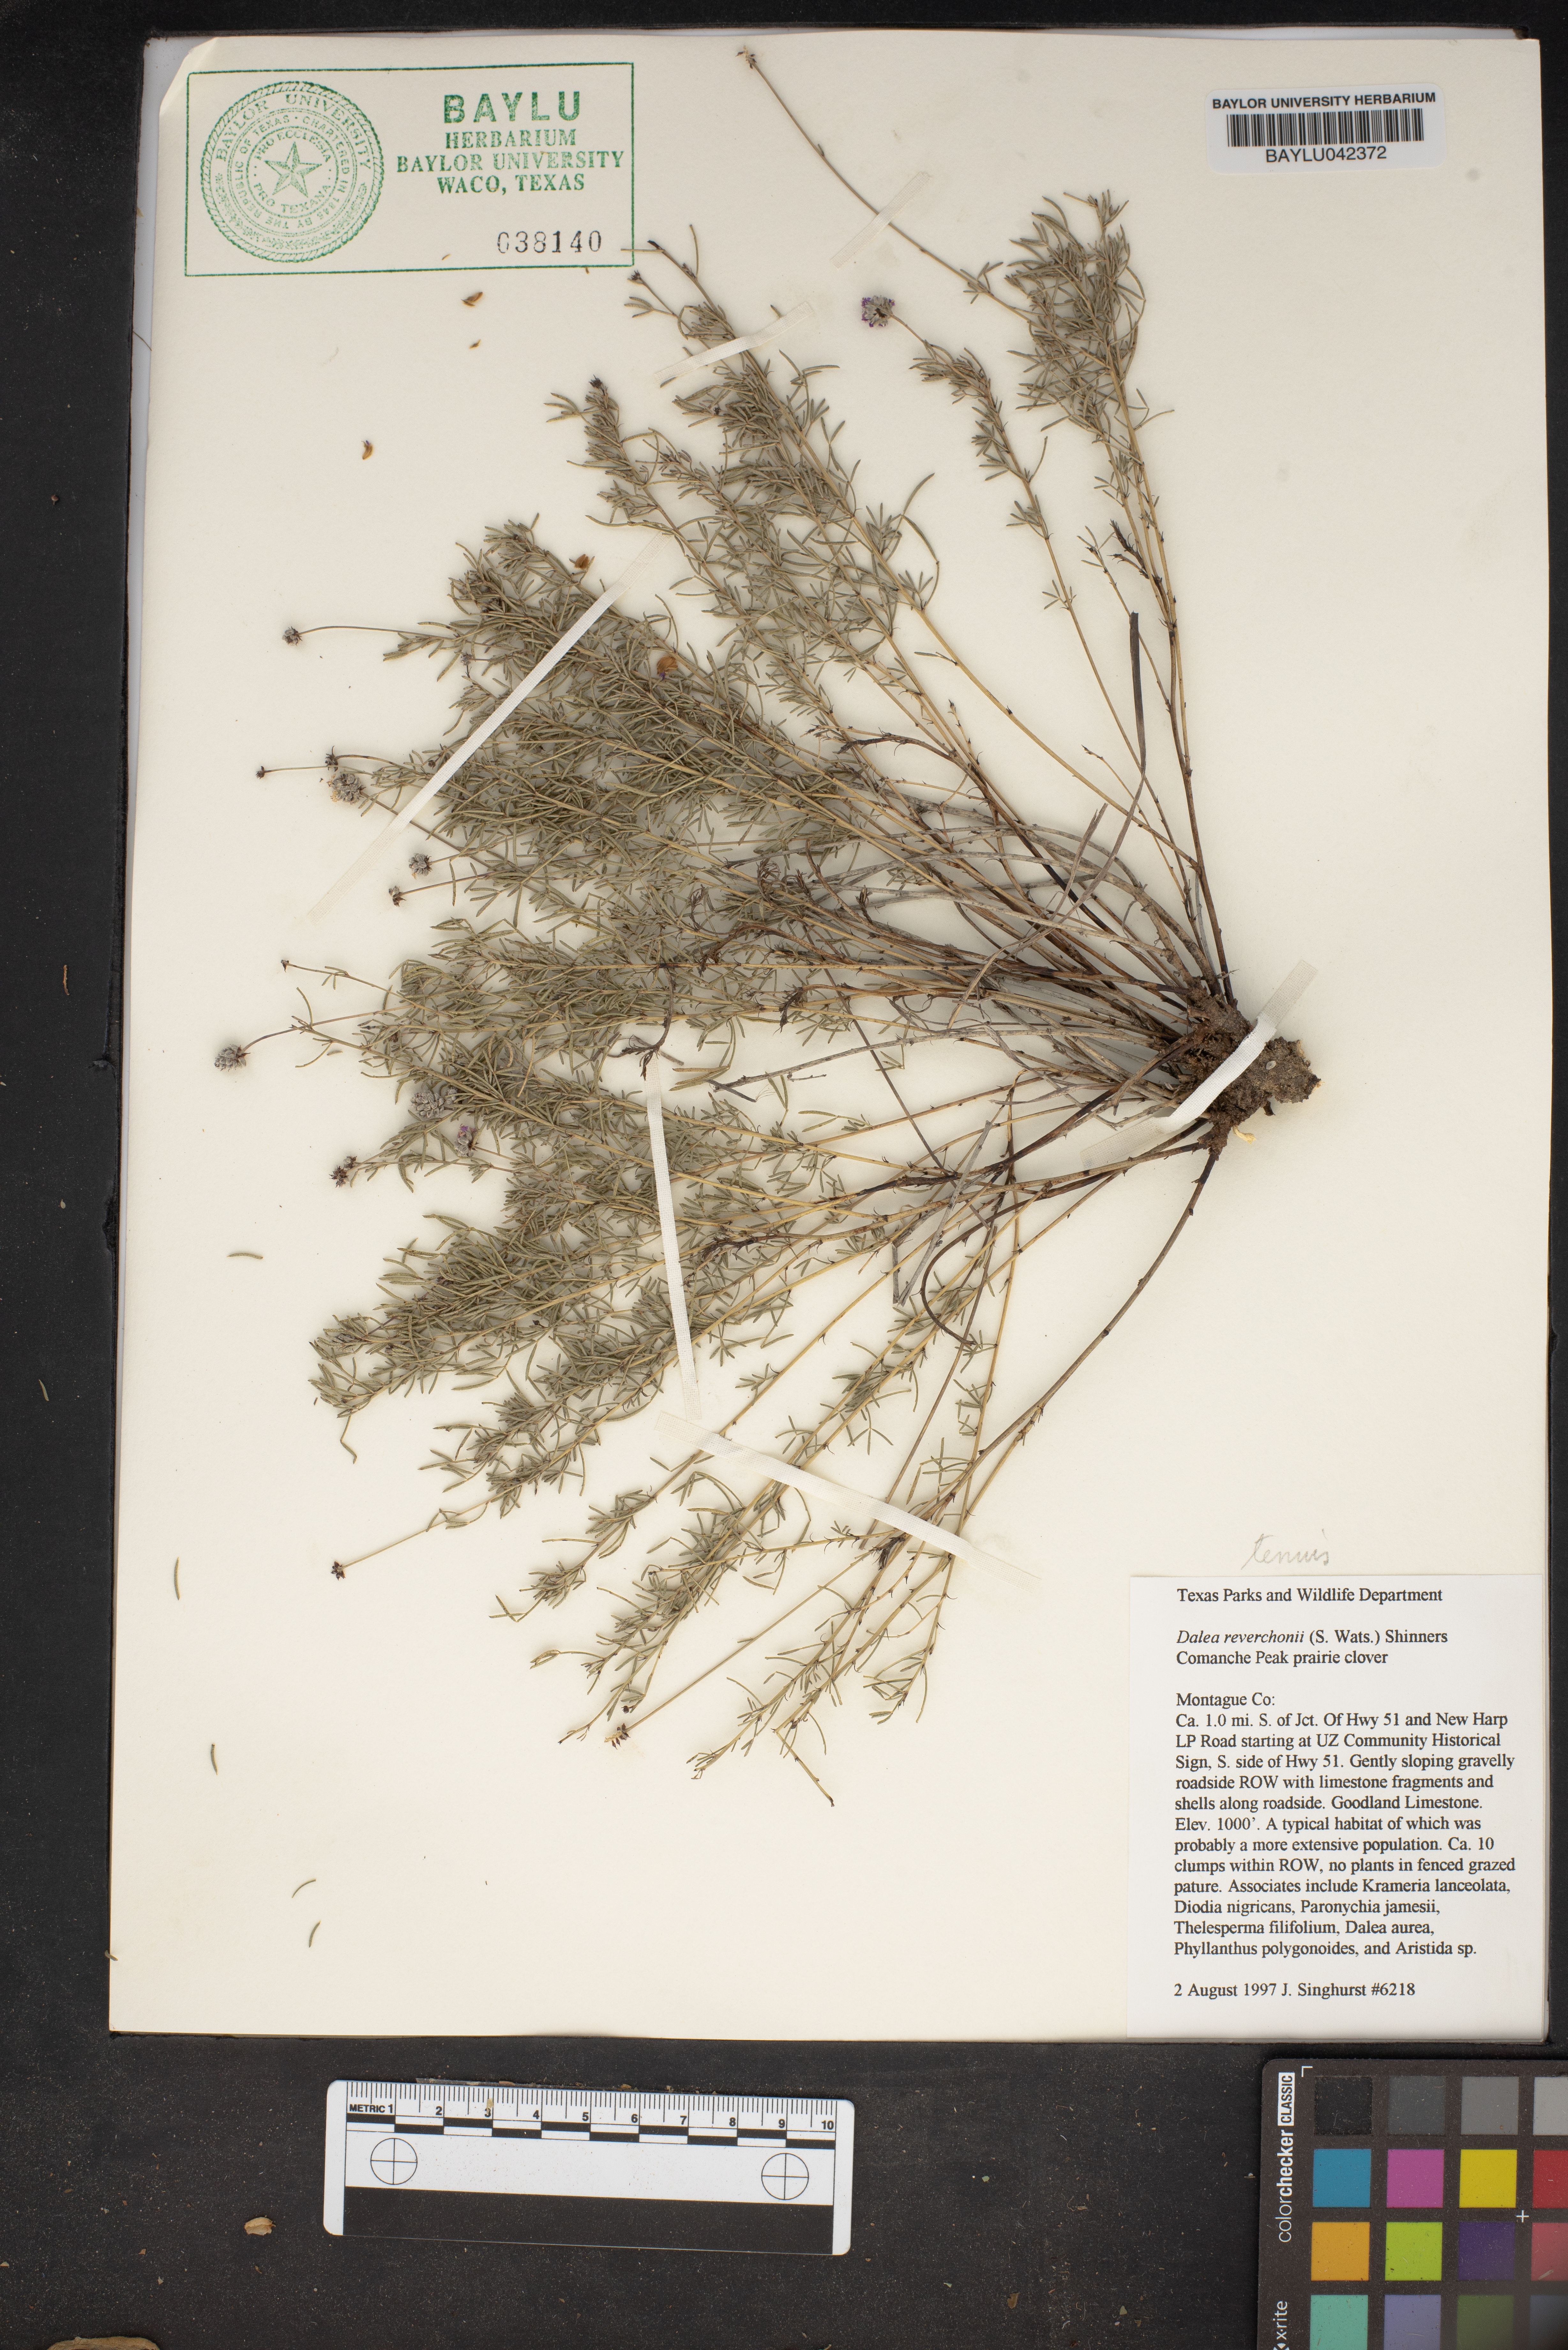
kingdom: Plantae
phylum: Tracheophyta
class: Magnoliopsida
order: Fabales
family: Fabaceae
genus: Dalea
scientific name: Dalea reverchonii
